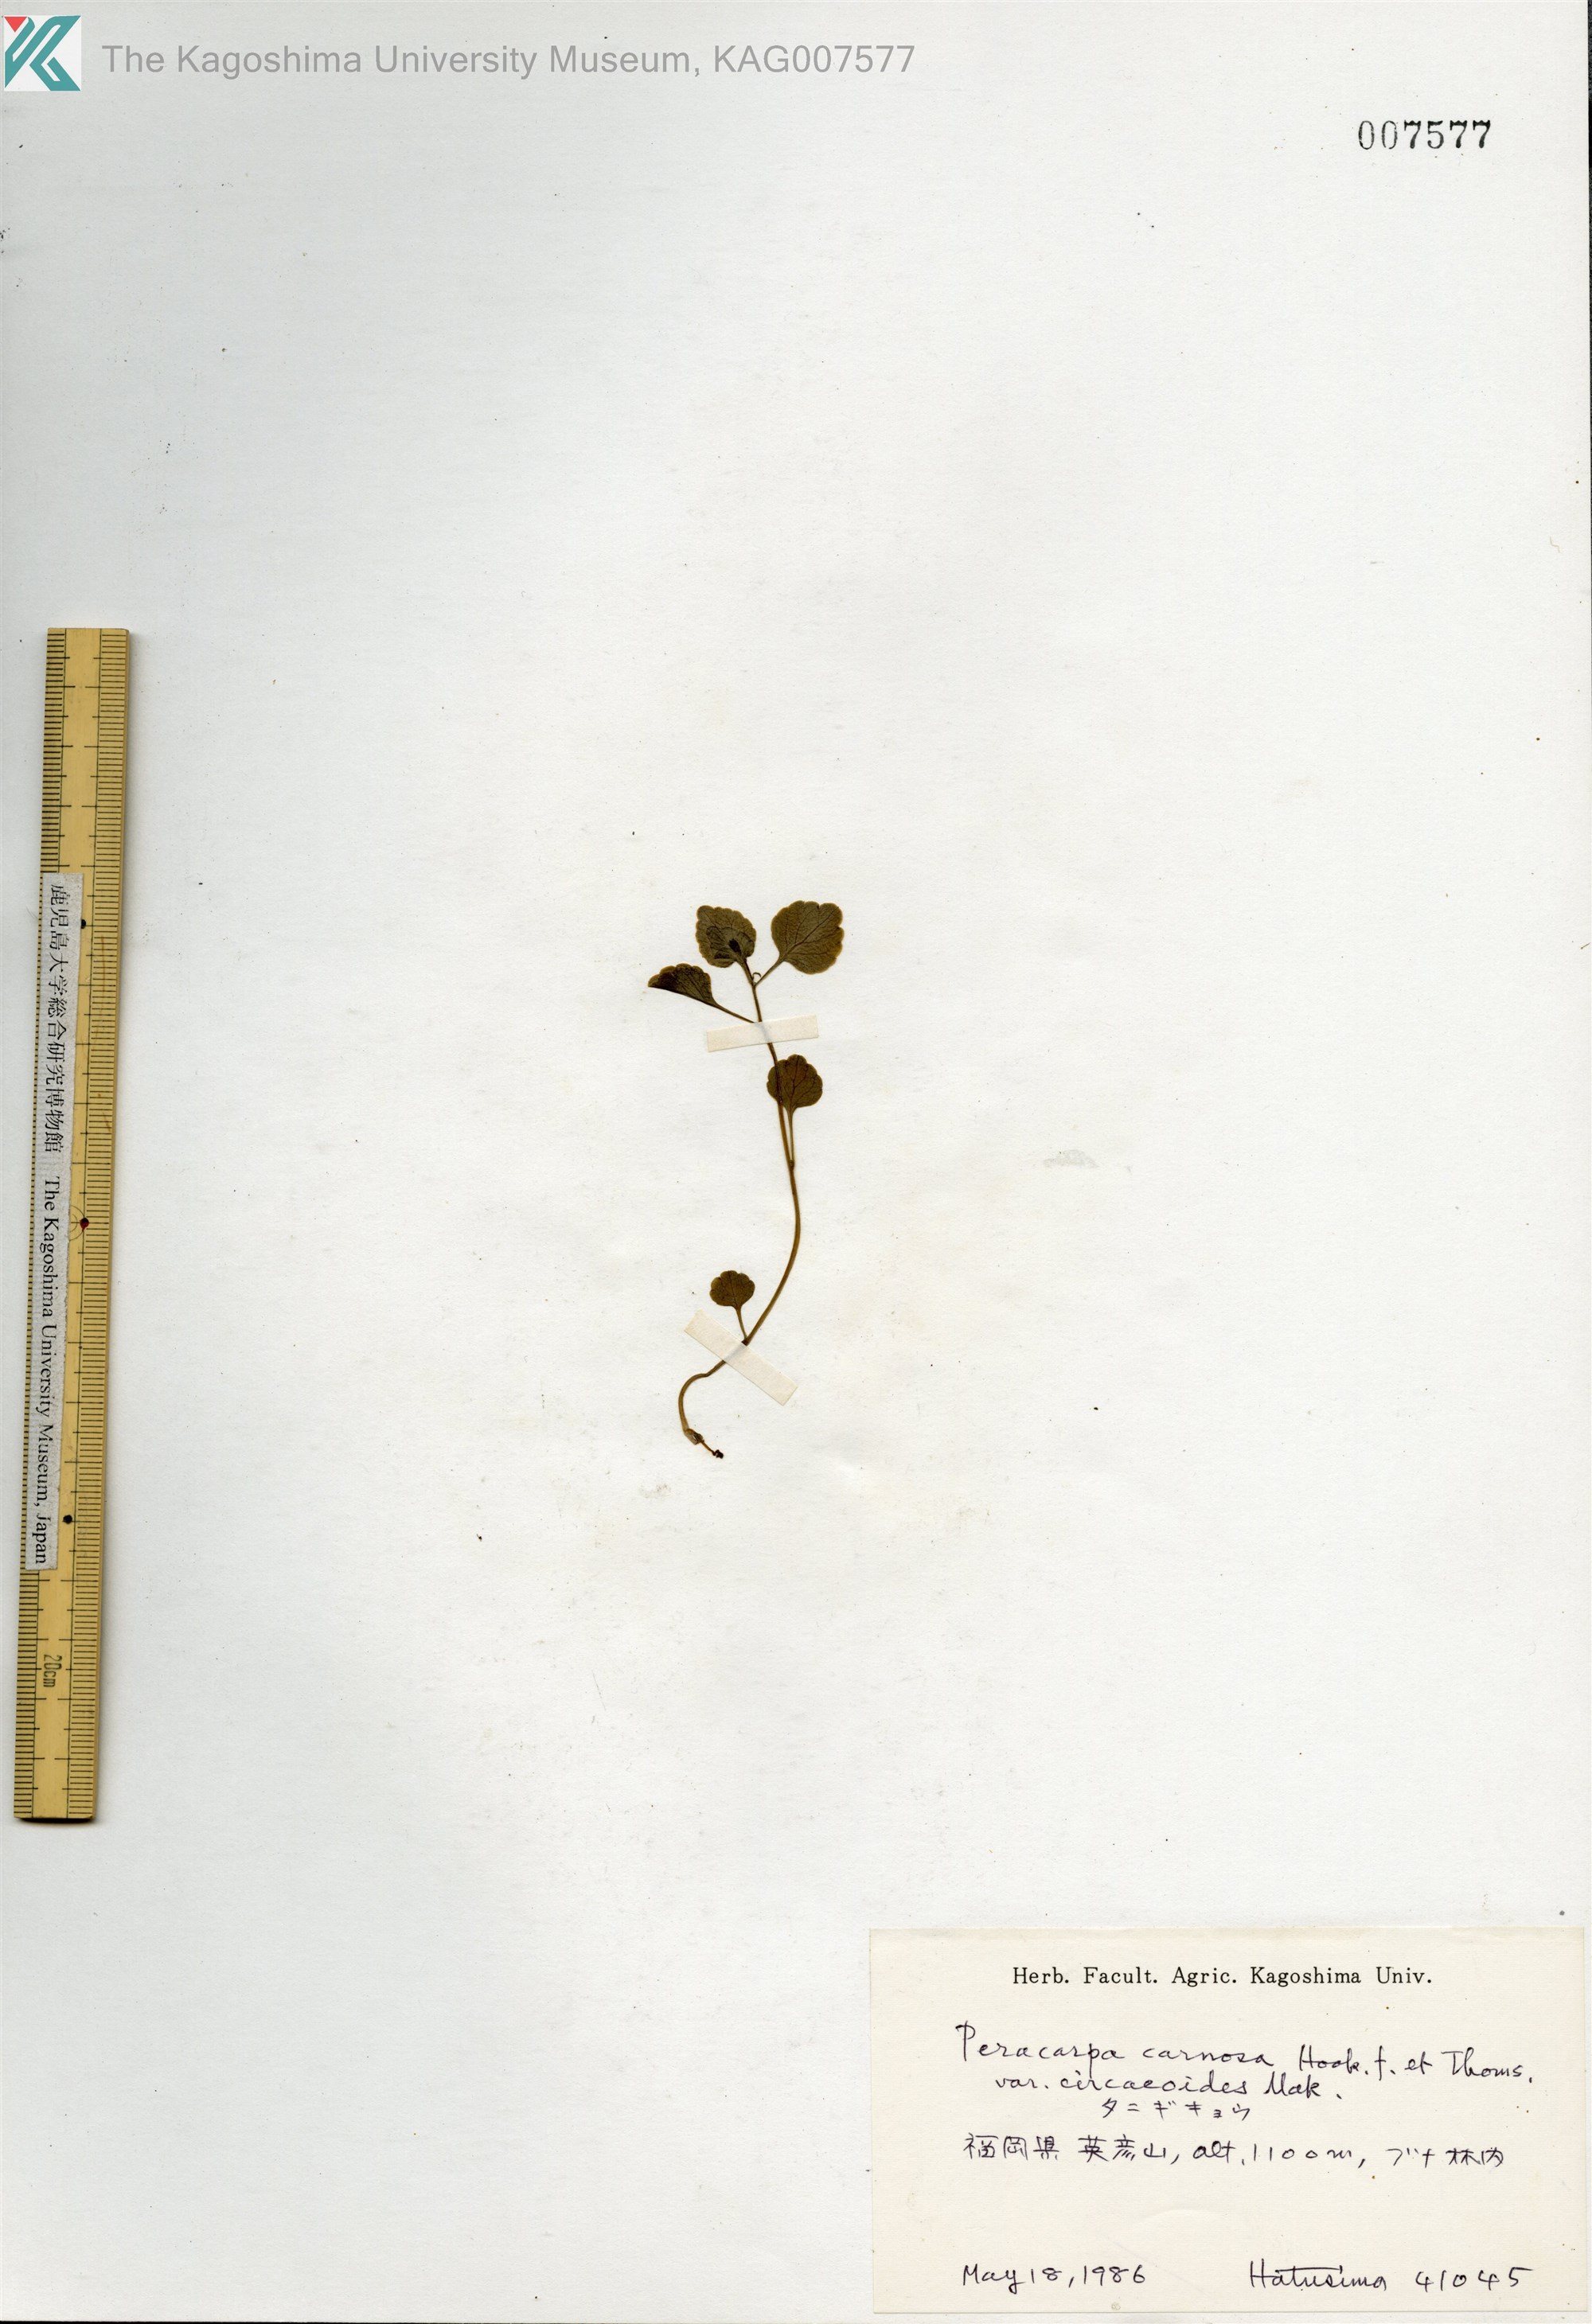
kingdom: Plantae
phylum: Tracheophyta
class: Magnoliopsida
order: Asterales
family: Campanulaceae
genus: Peracarpa
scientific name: Peracarpa carnosa
